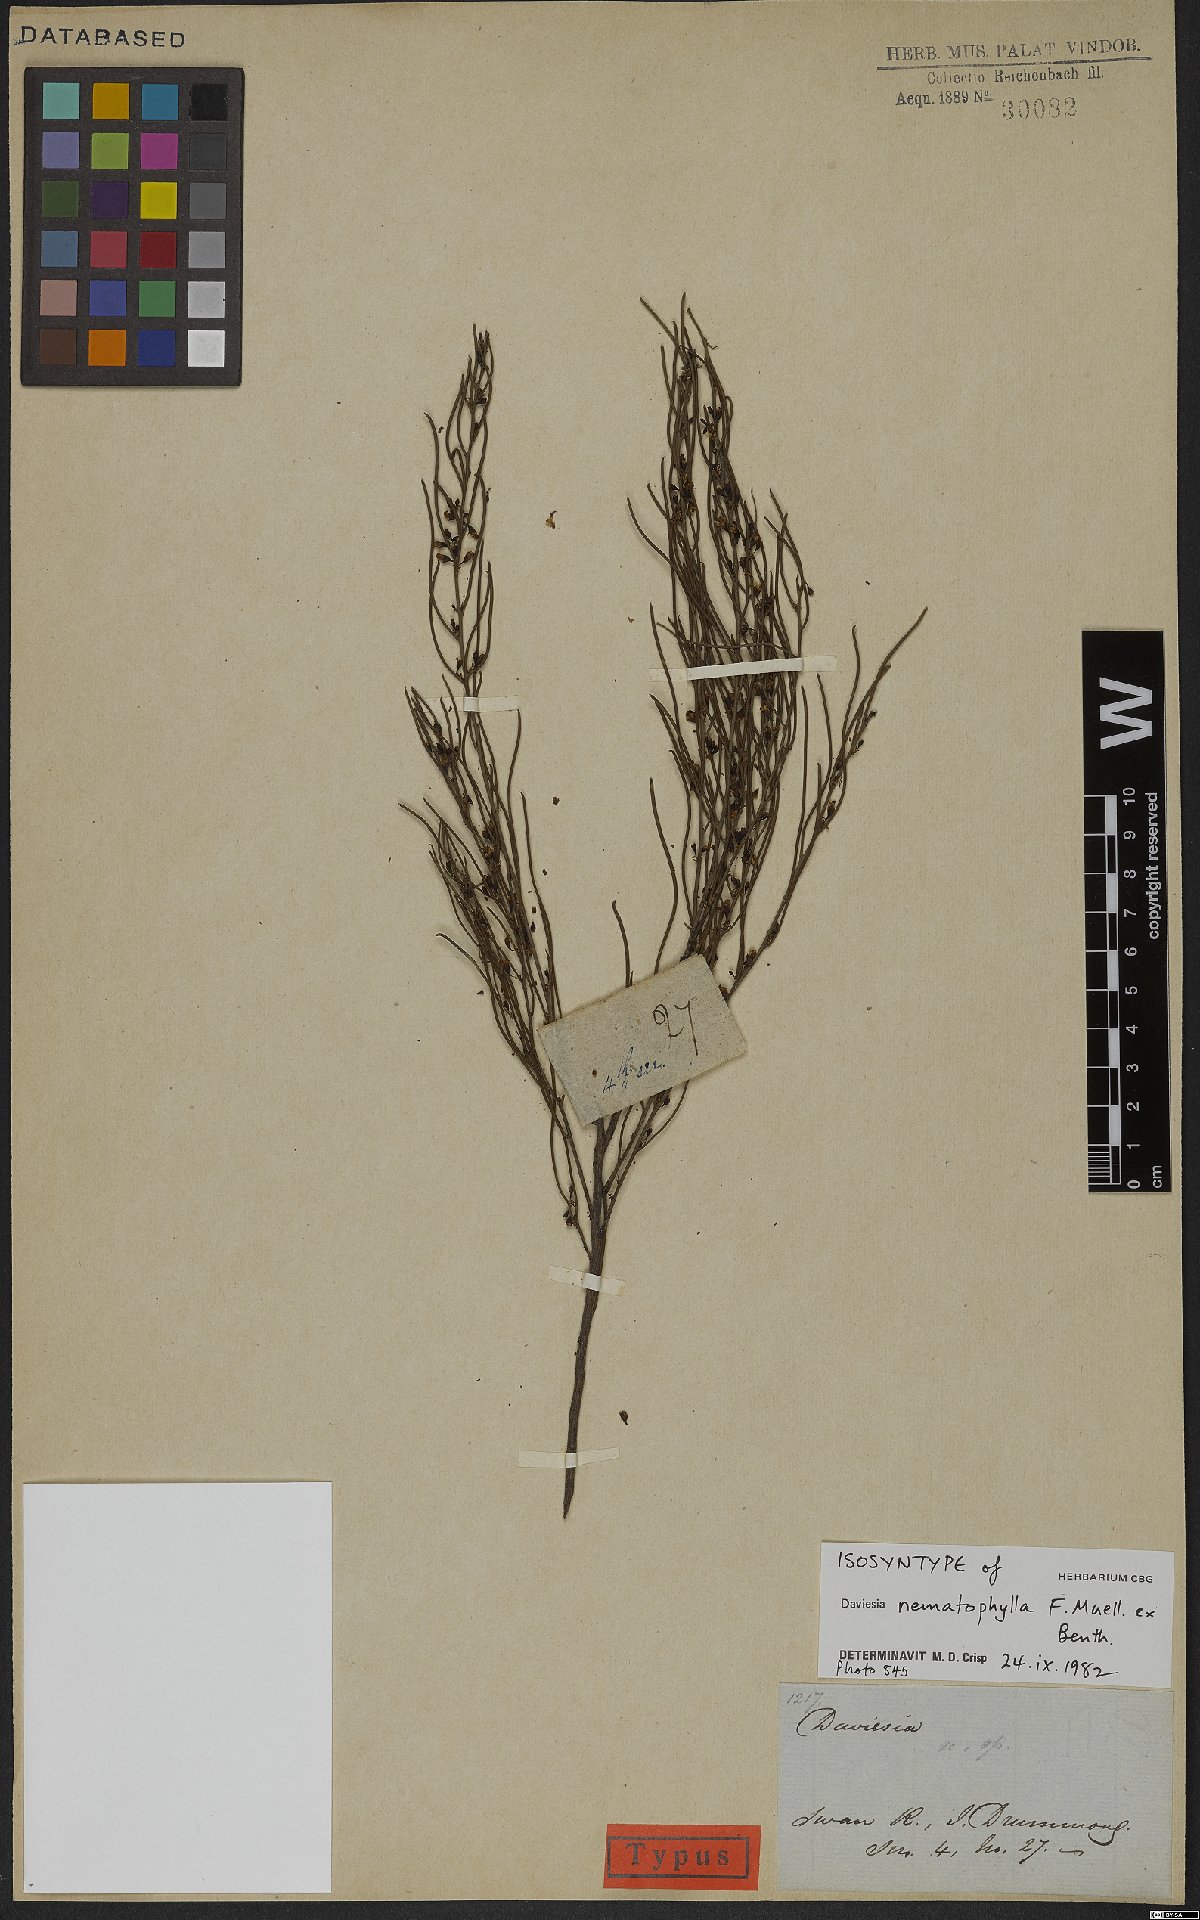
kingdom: Plantae
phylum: Tracheophyta
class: Magnoliopsida
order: Fabales
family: Fabaceae
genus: Daviesia
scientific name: Daviesia nematophylla
